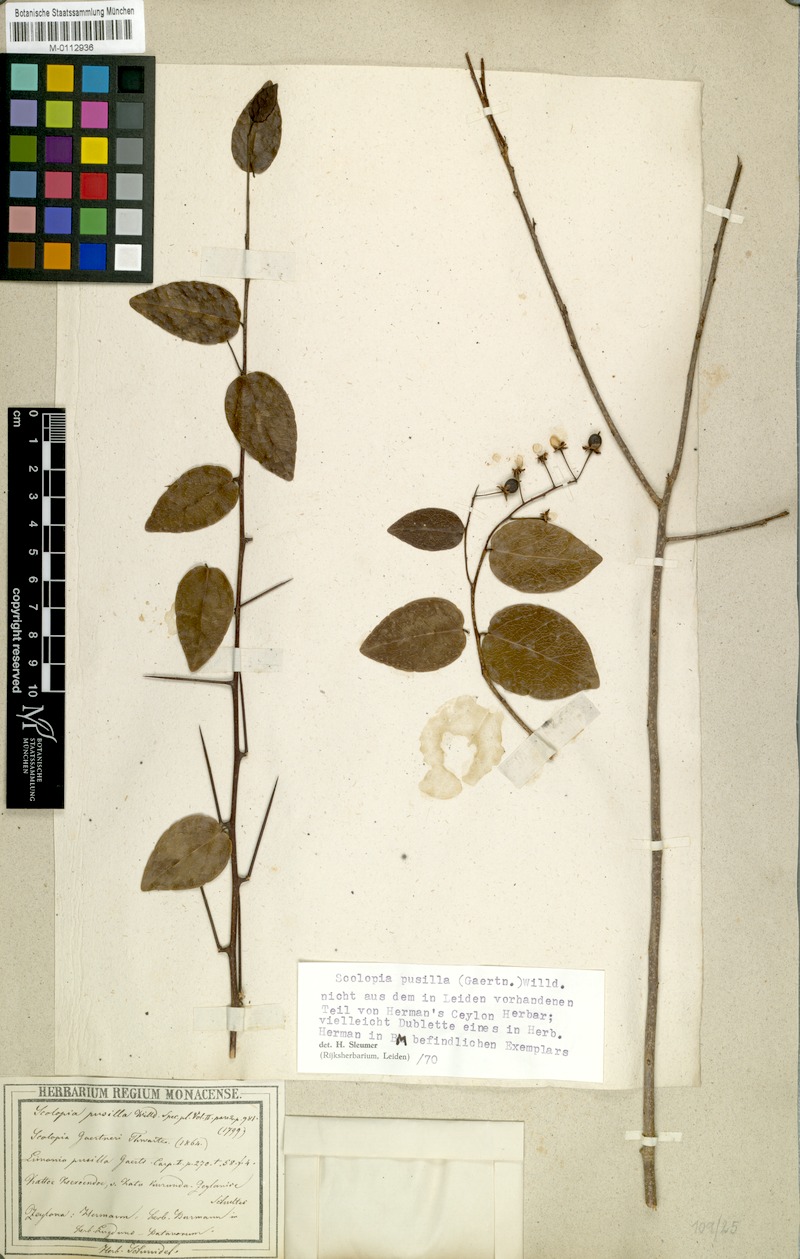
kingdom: Plantae
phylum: Tracheophyta
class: Magnoliopsida
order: Malpighiales
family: Salicaceae
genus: Scolopia
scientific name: Scolopia pusilla
